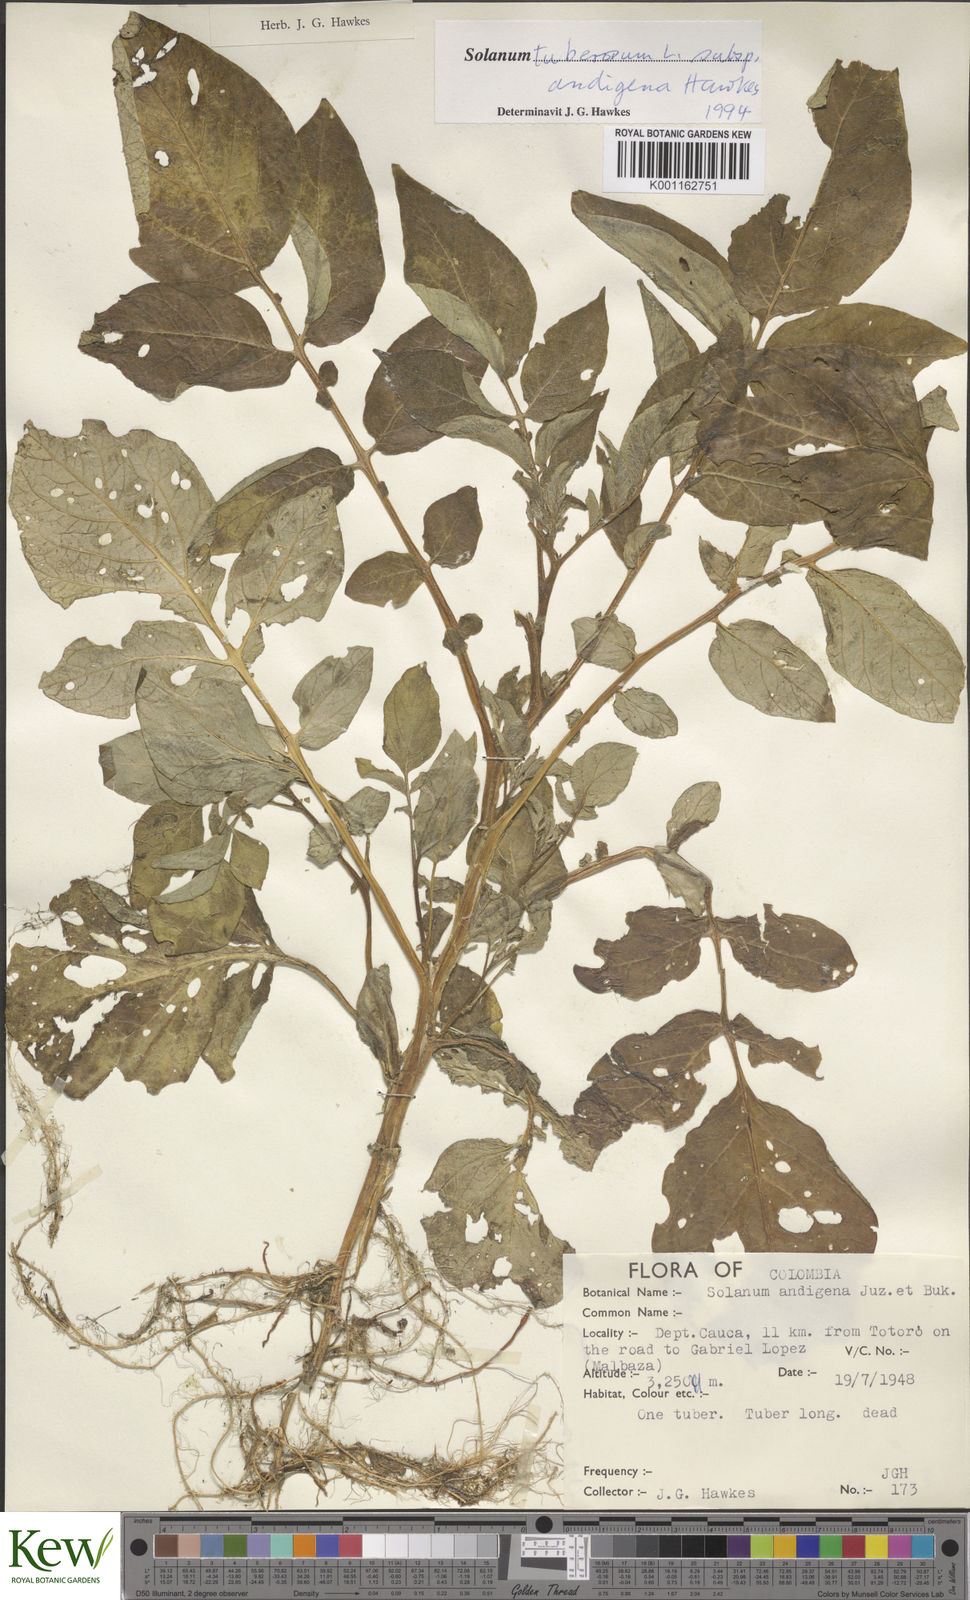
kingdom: Plantae
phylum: Tracheophyta
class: Magnoliopsida
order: Solanales
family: Solanaceae
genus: Solanum
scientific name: Solanum tuberosum
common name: Potato
